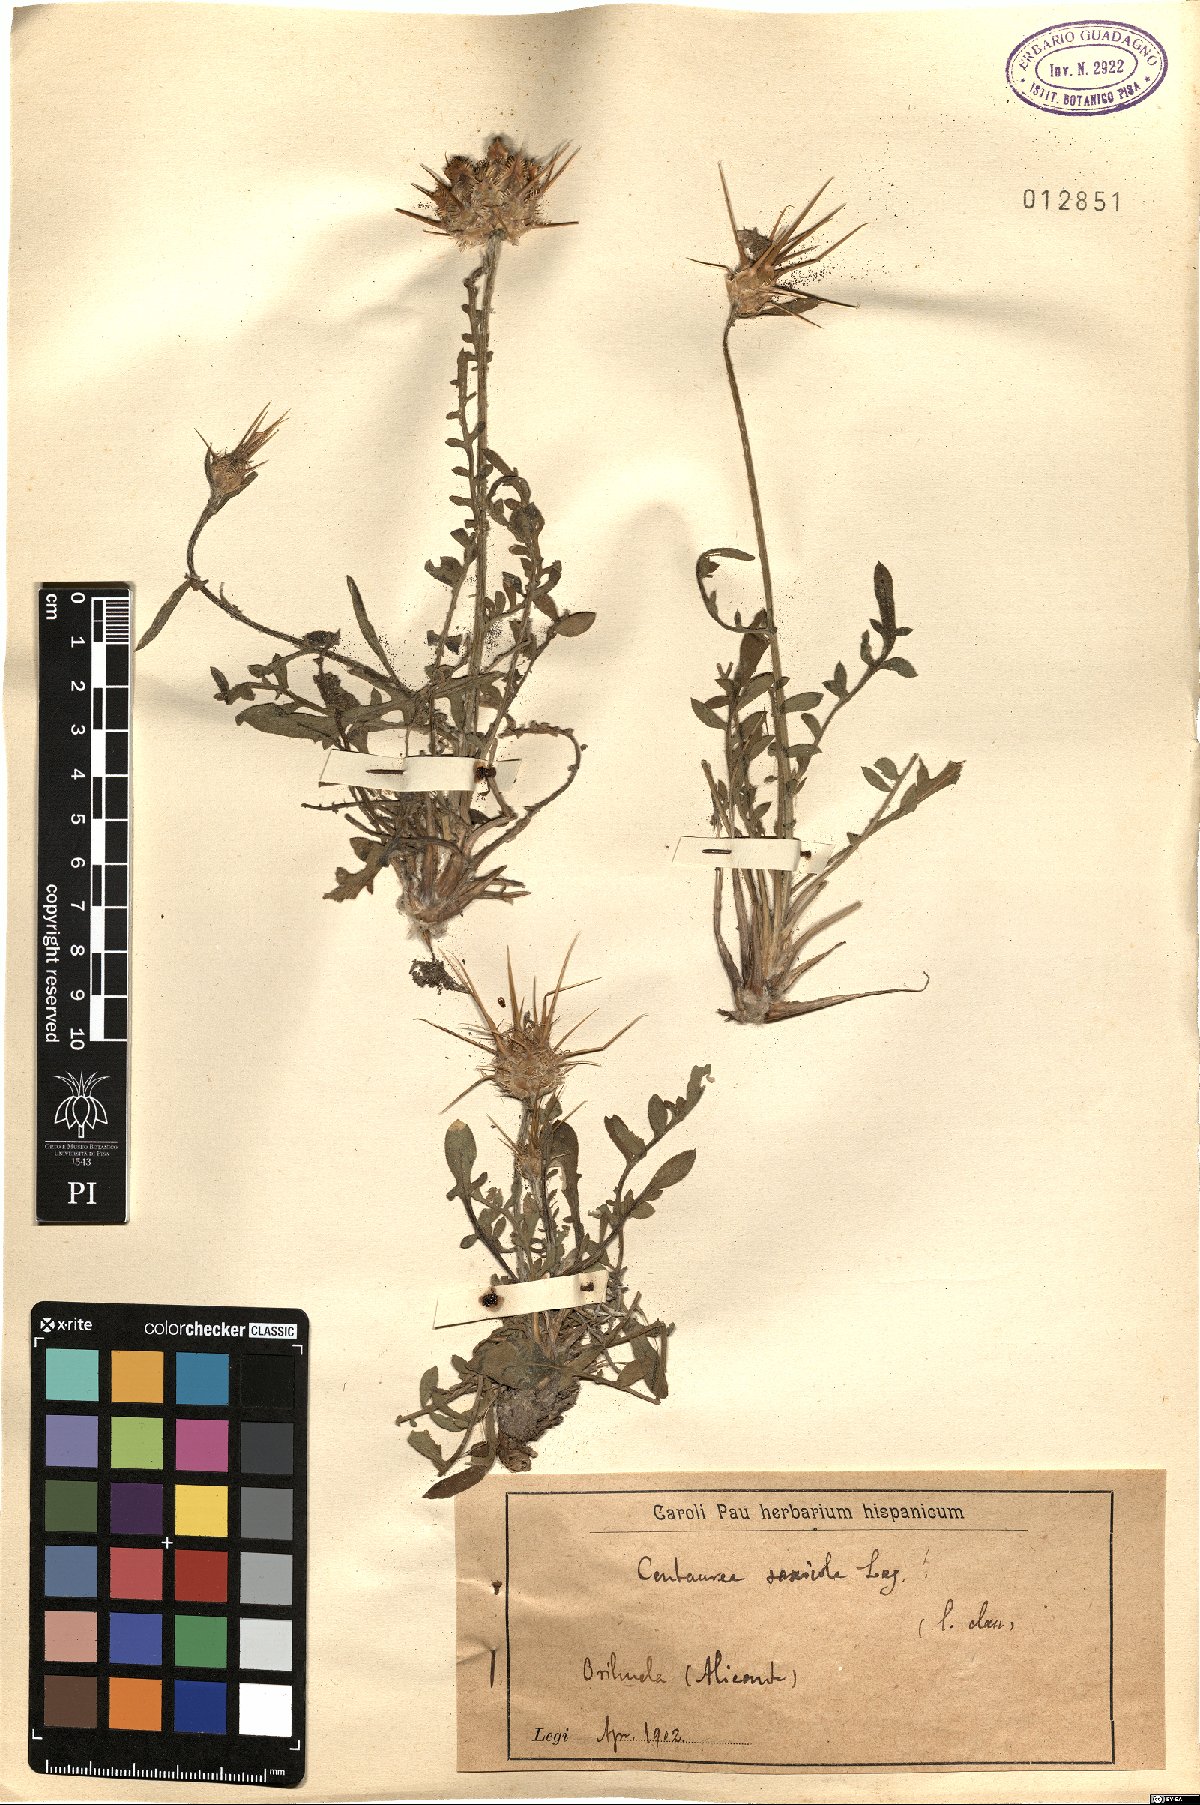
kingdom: Plantae
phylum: Tracheophyta
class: Magnoliopsida
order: Asterales
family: Asteraceae
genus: Centaurea
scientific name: Centaurea saxicola
